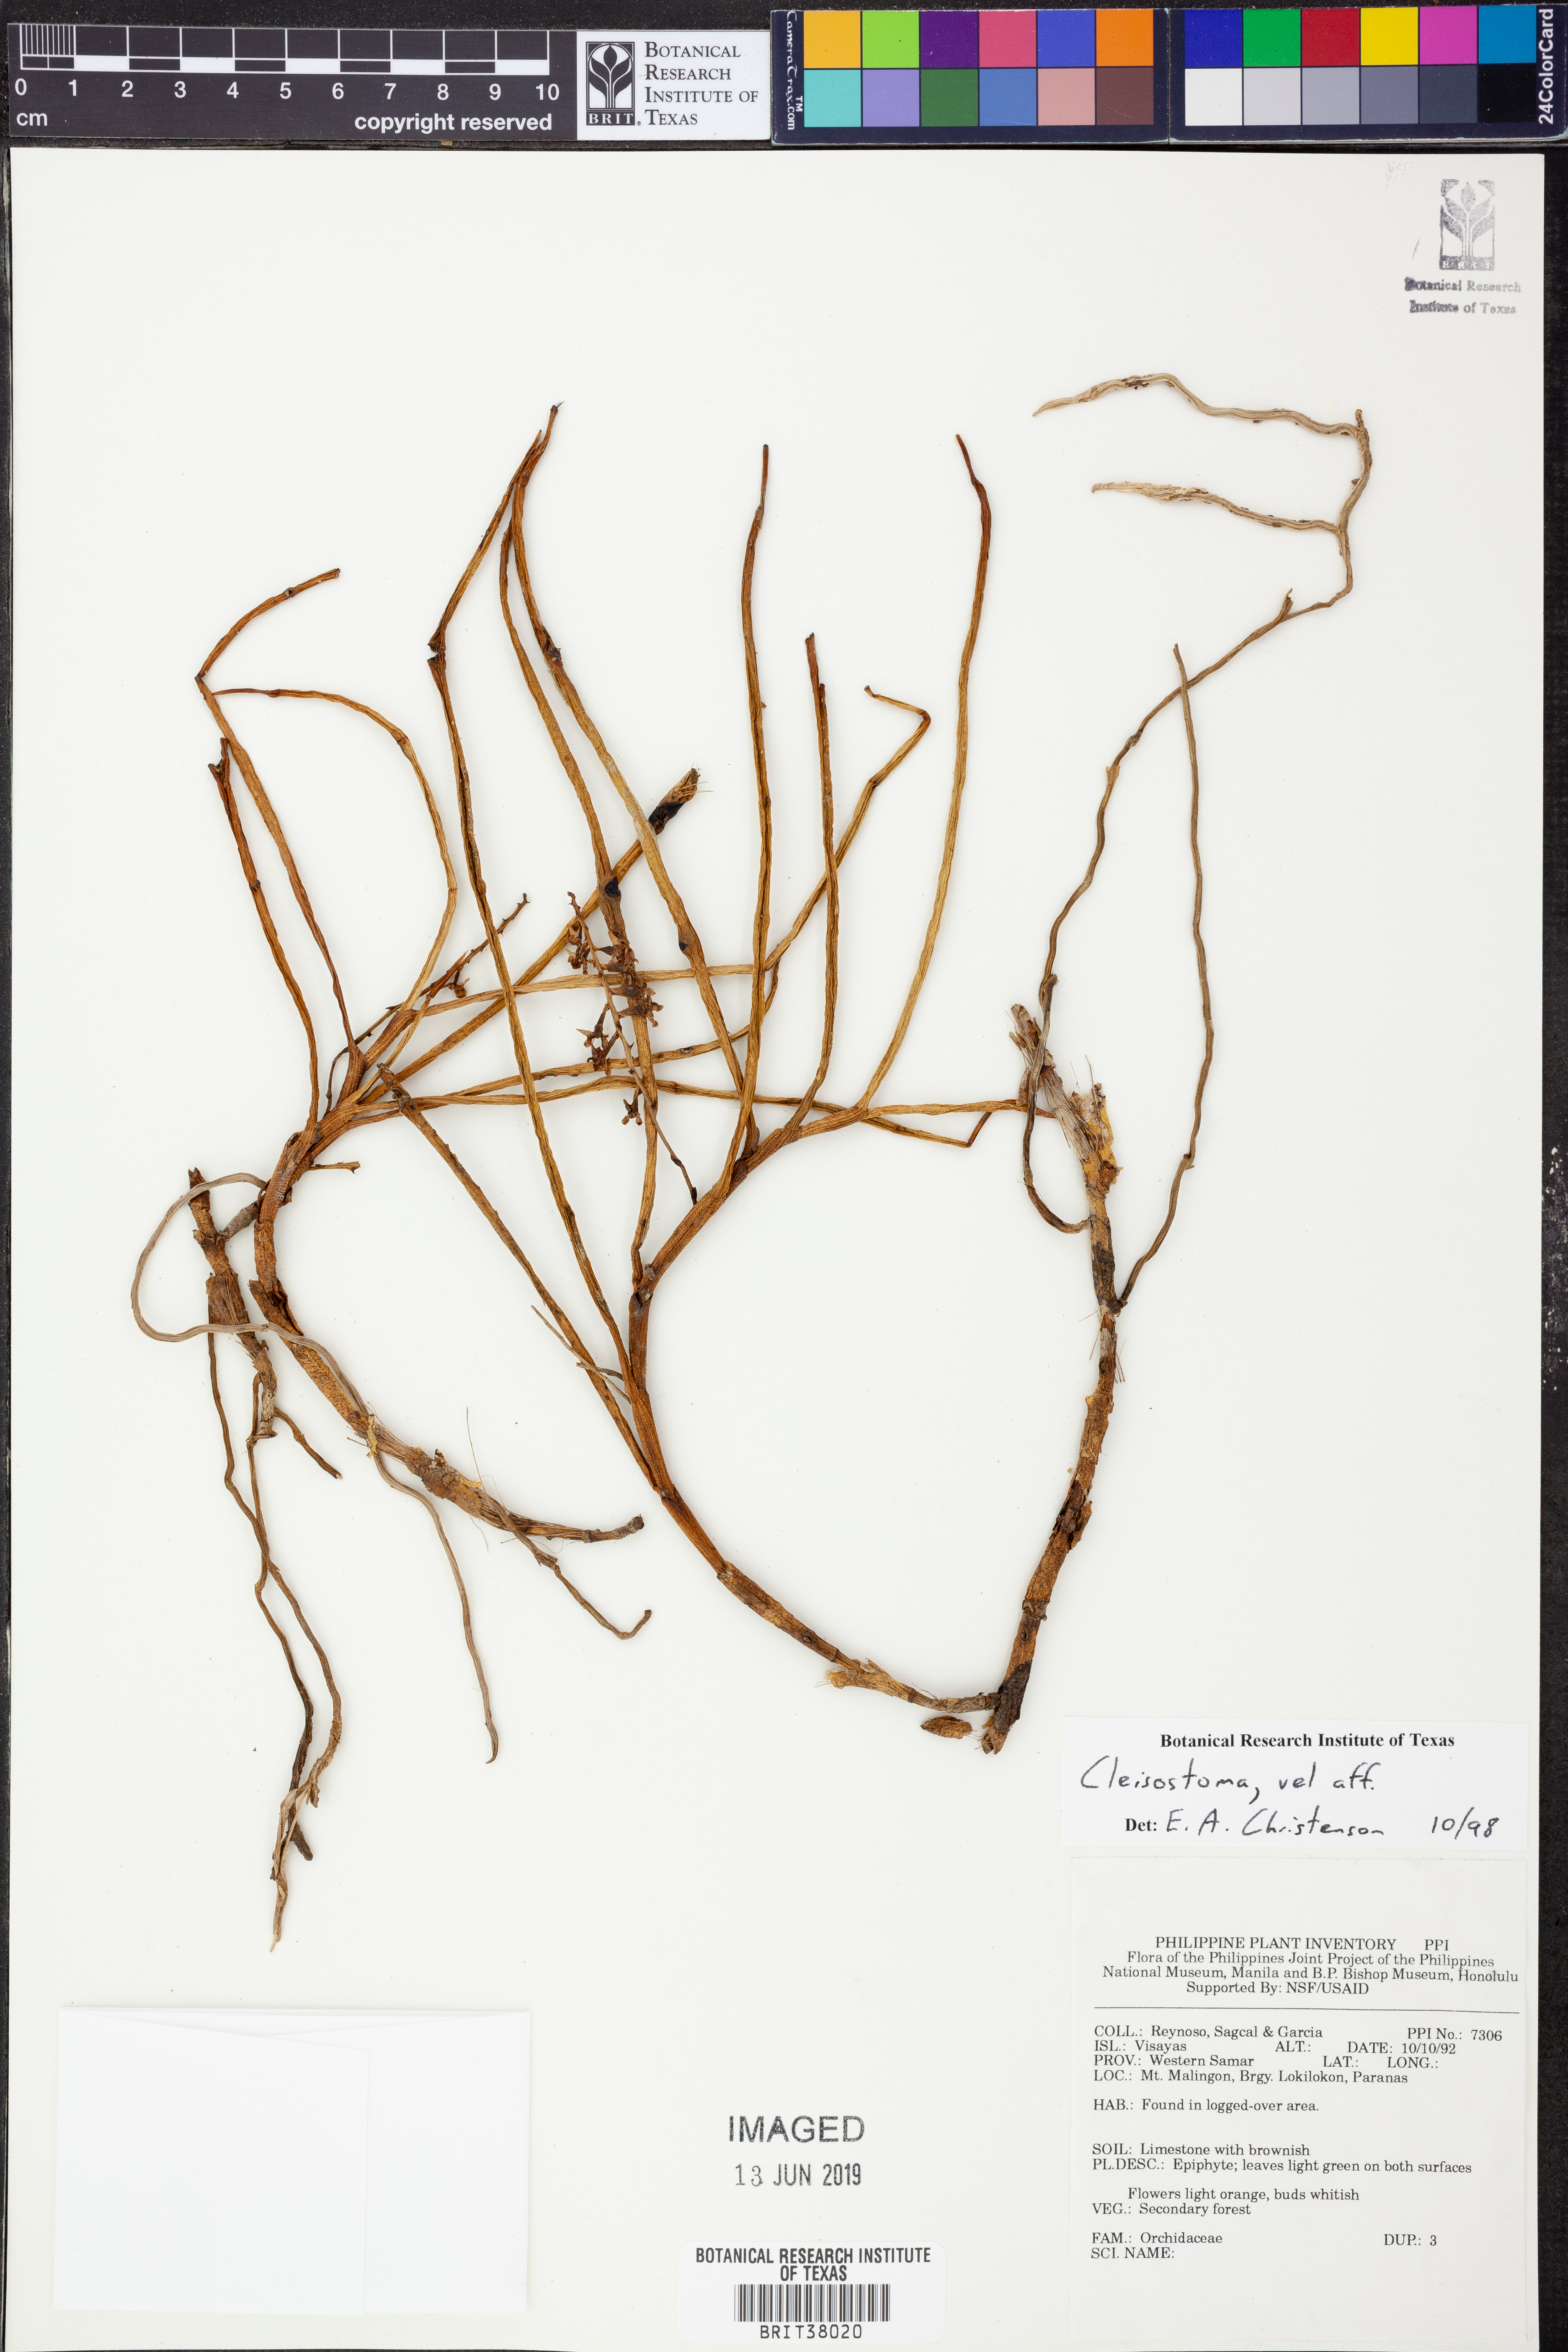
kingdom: Plantae
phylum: Tracheophyta
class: Liliopsida
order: Asparagales
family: Orchidaceae
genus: Cleisostoma
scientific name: Cleisostoma
